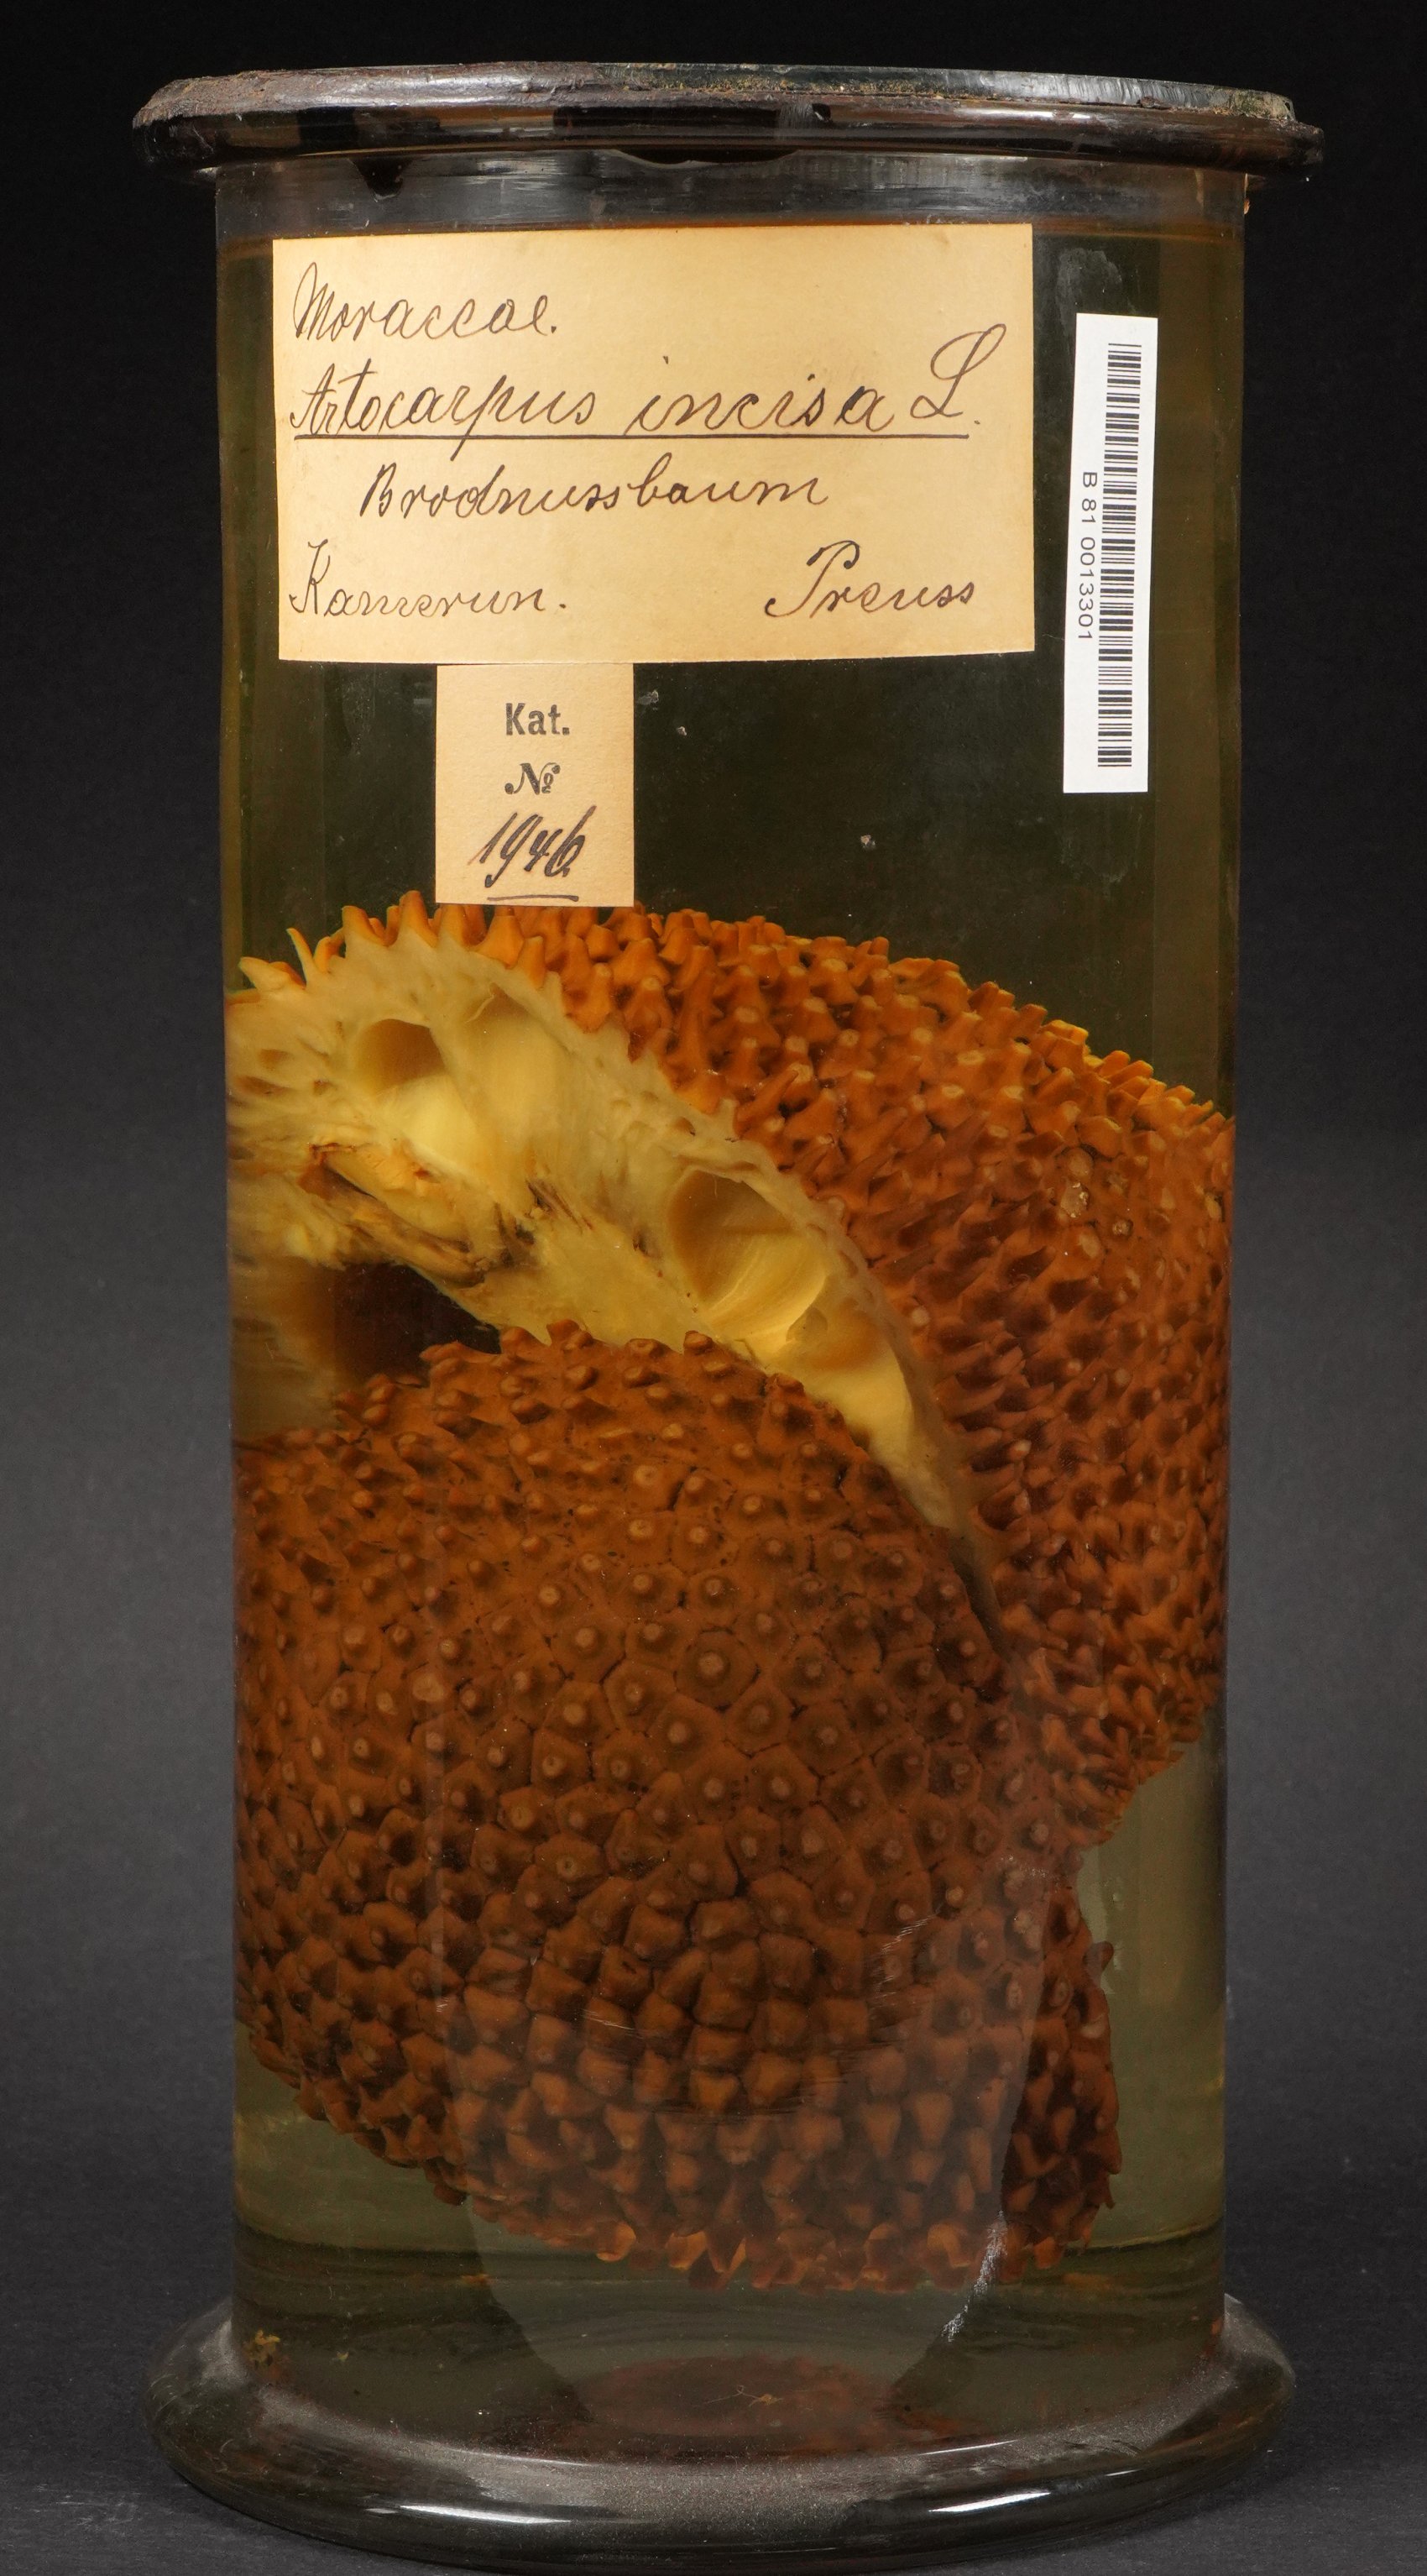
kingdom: Plantae
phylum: Tracheophyta
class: Magnoliopsida
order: Rosales
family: Moraceae
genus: Artocarpus
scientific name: Artocarpus altilis
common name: Breadfruit
